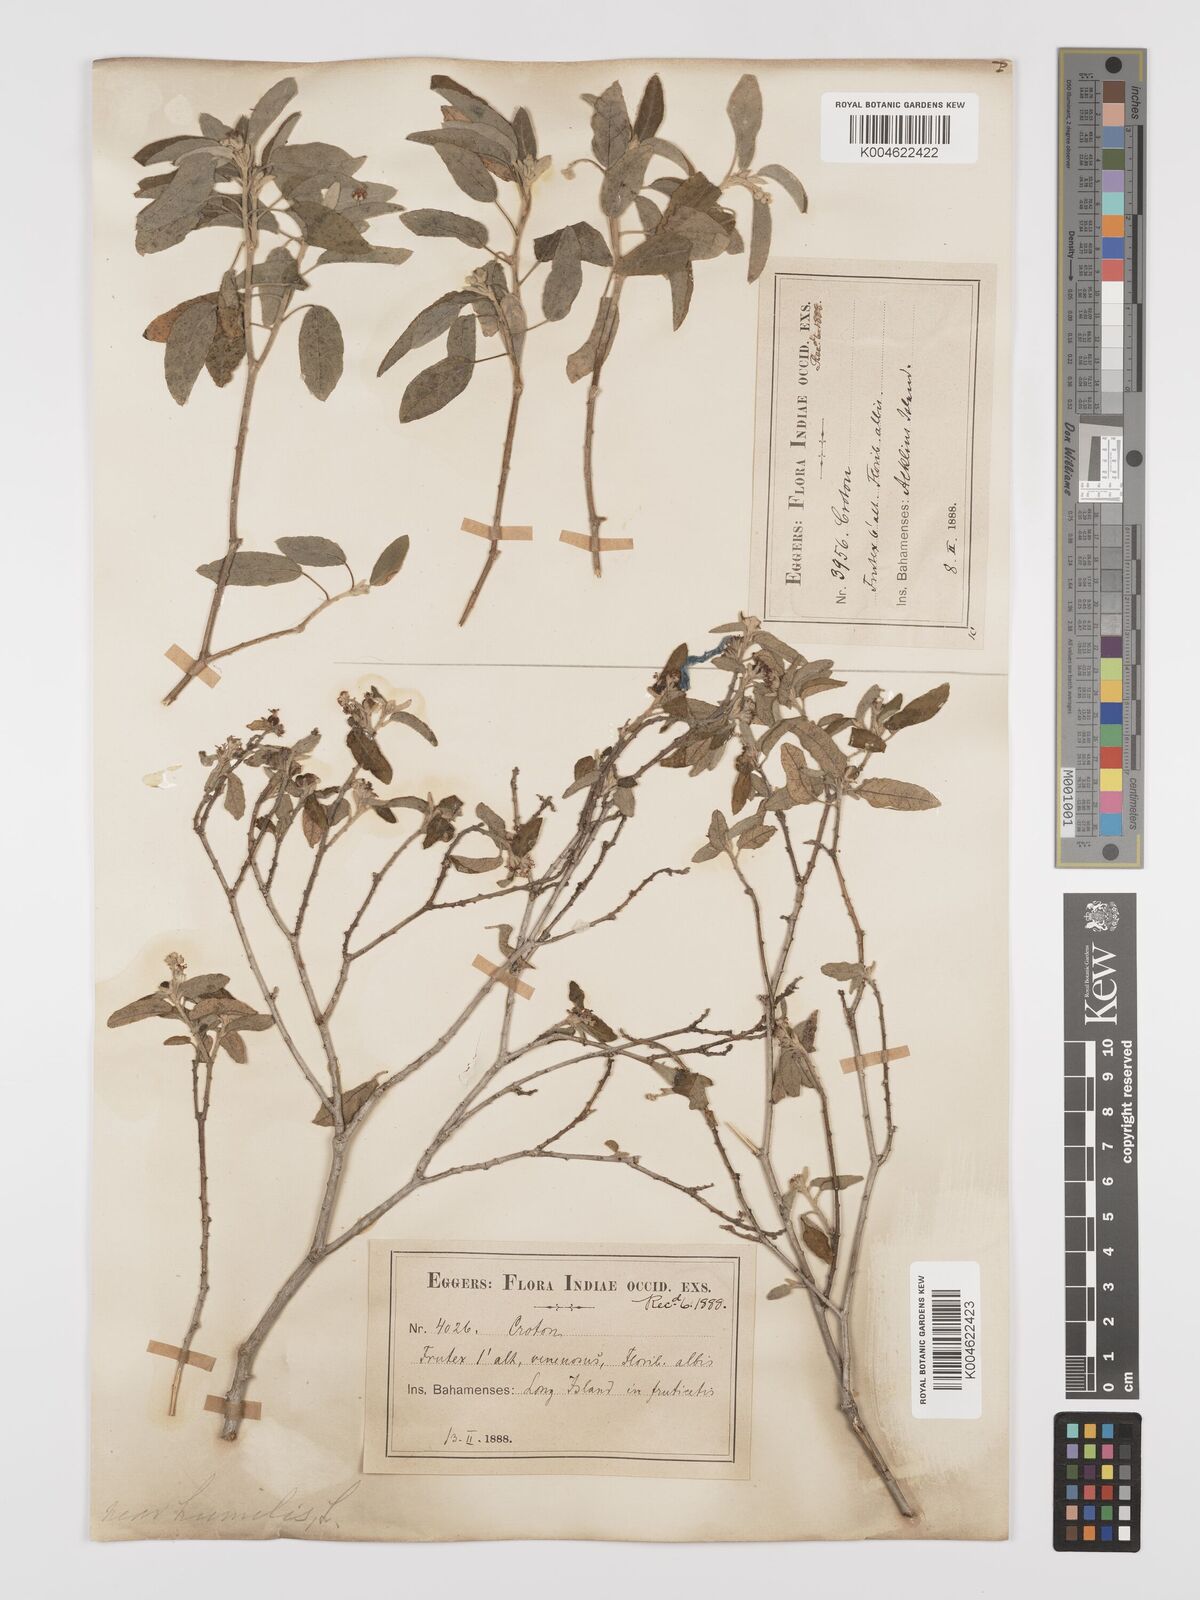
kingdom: Plantae
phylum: Tracheophyta
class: Magnoliopsida
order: Malpighiales
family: Euphorbiaceae
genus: Croton
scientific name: Croton
